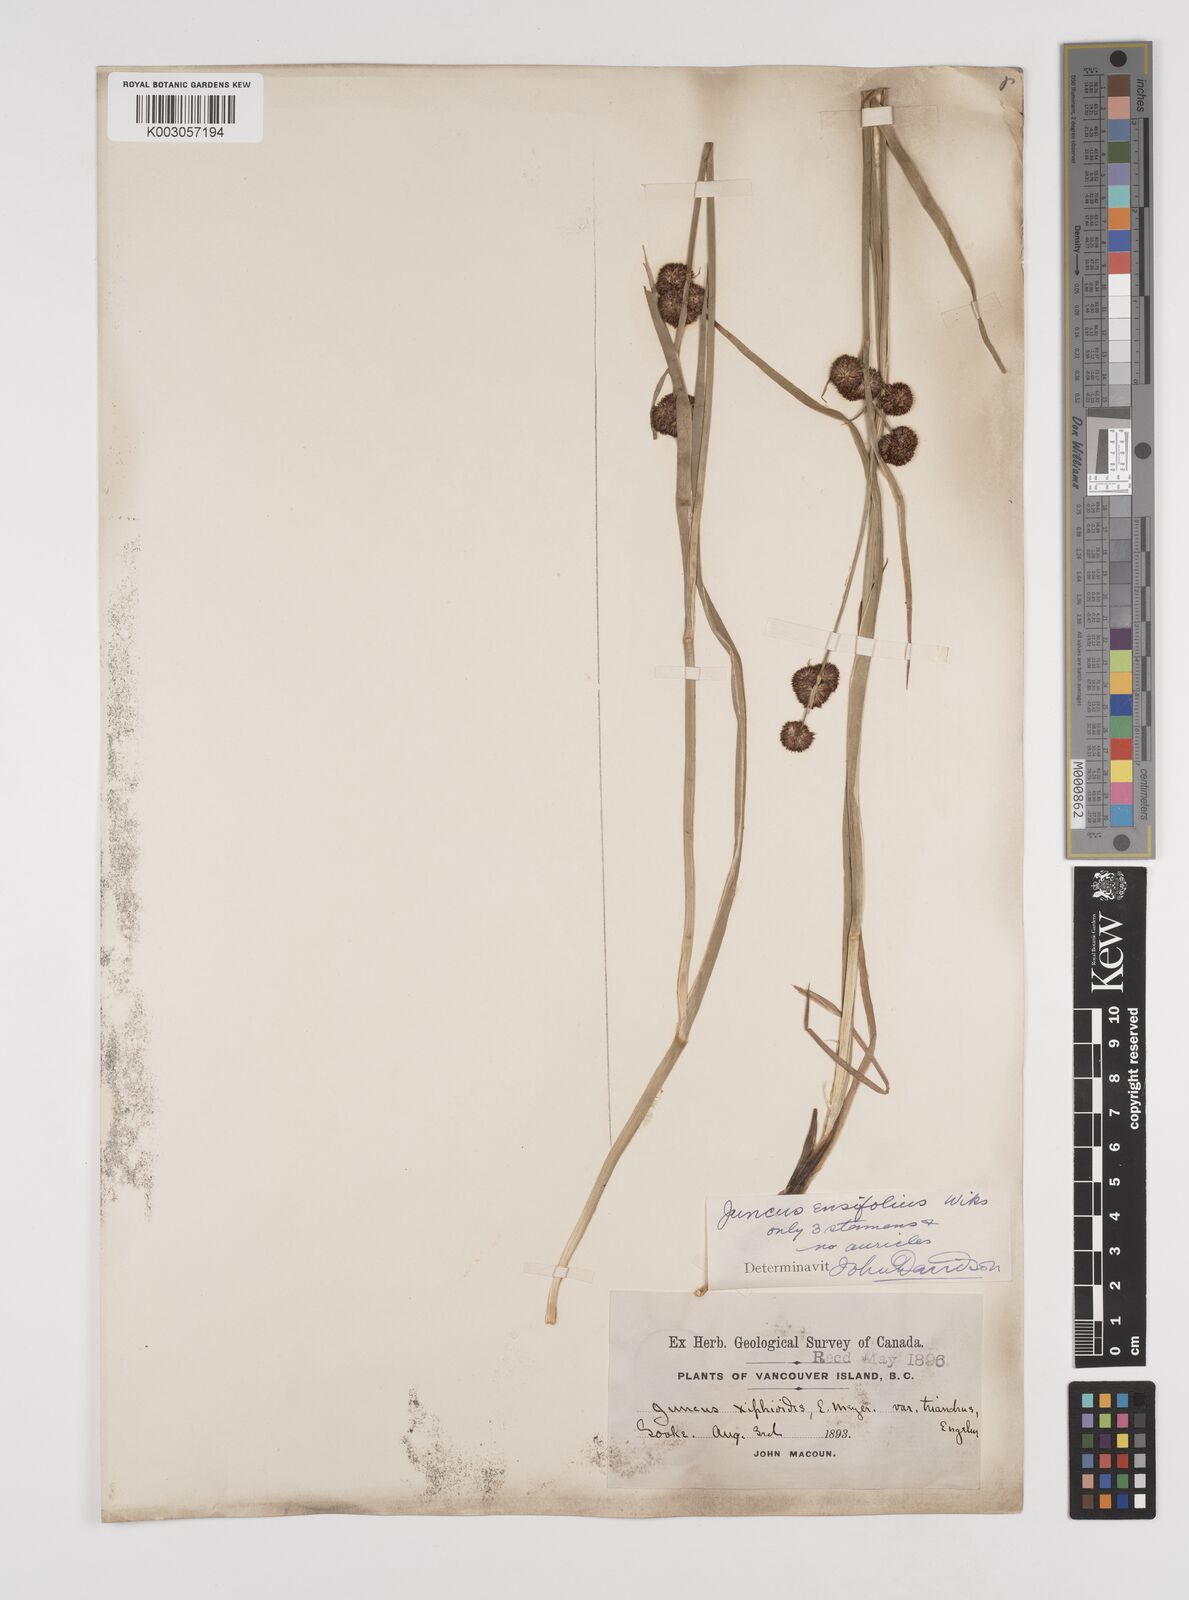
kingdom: Plantae
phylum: Tracheophyta
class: Liliopsida
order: Poales
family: Juncaceae
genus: Juncus
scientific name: Juncus ensifolius
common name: Sword-leaved rush
